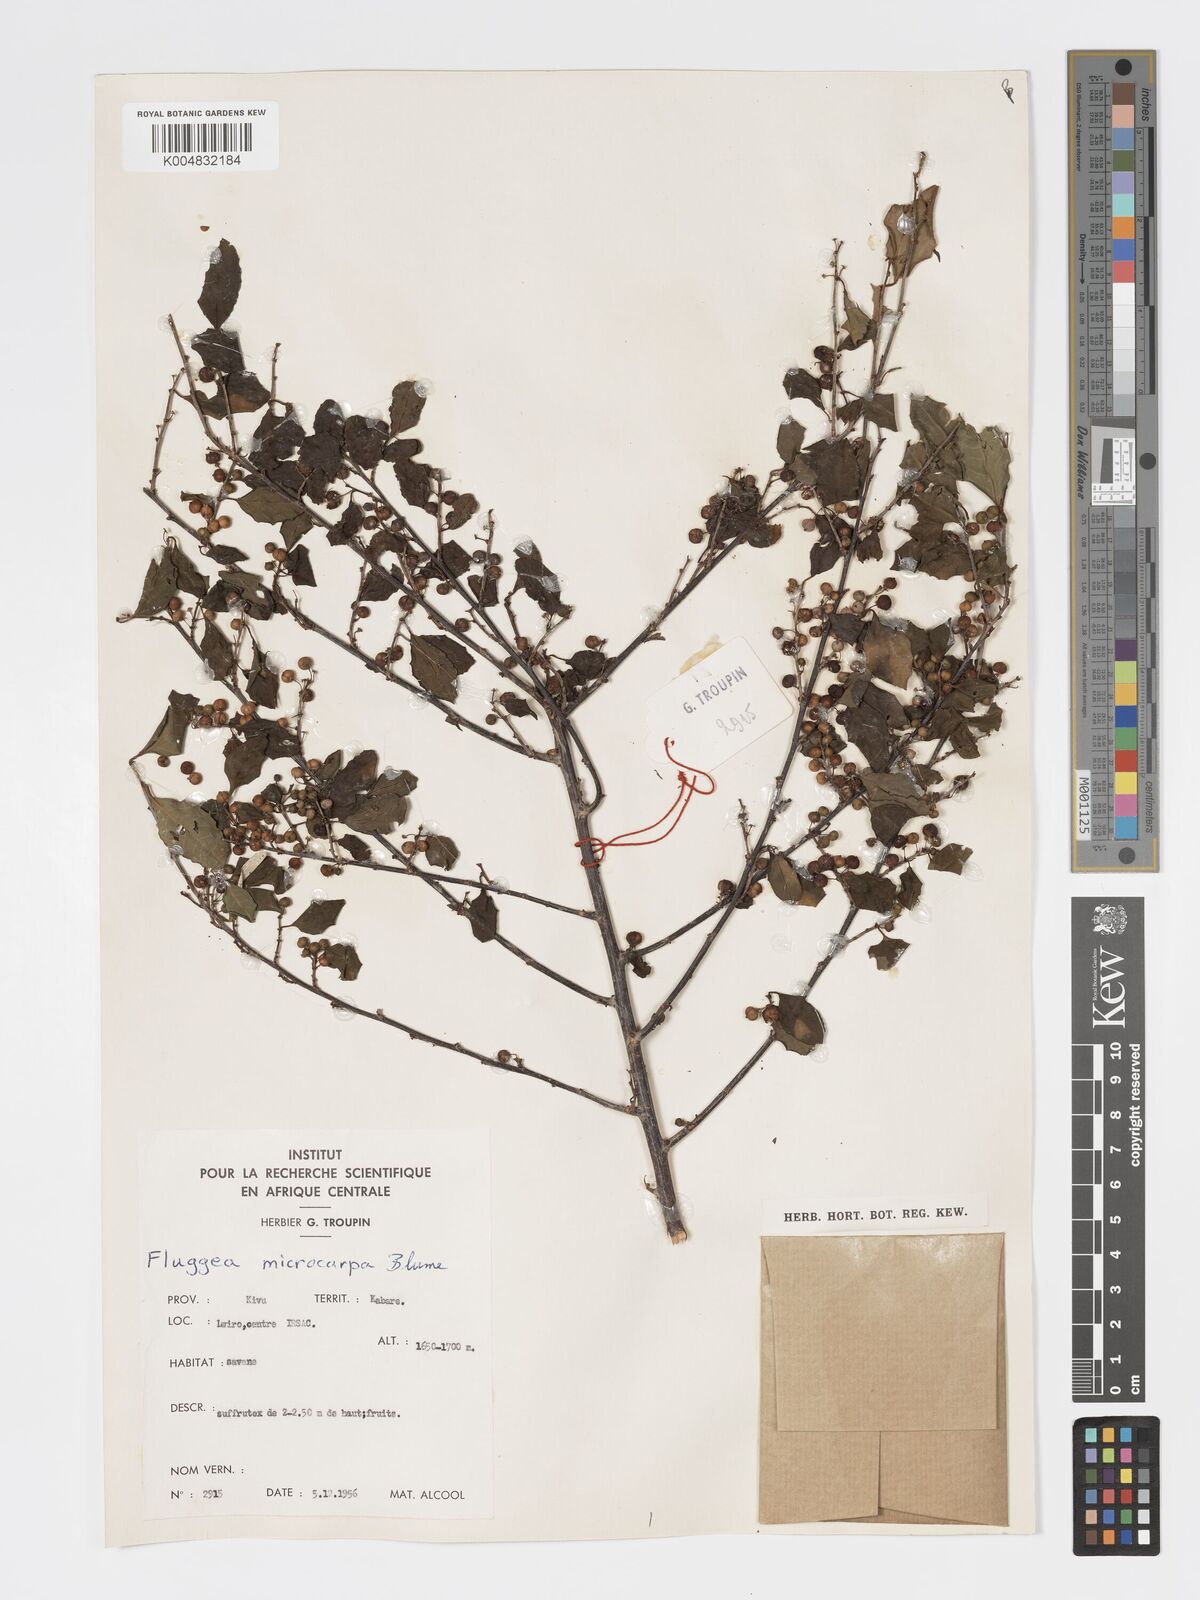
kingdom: Plantae
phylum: Tracheophyta
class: Magnoliopsida
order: Malpighiales
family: Phyllanthaceae
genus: Flueggea
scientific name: Flueggea virosa
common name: Common bushweed
